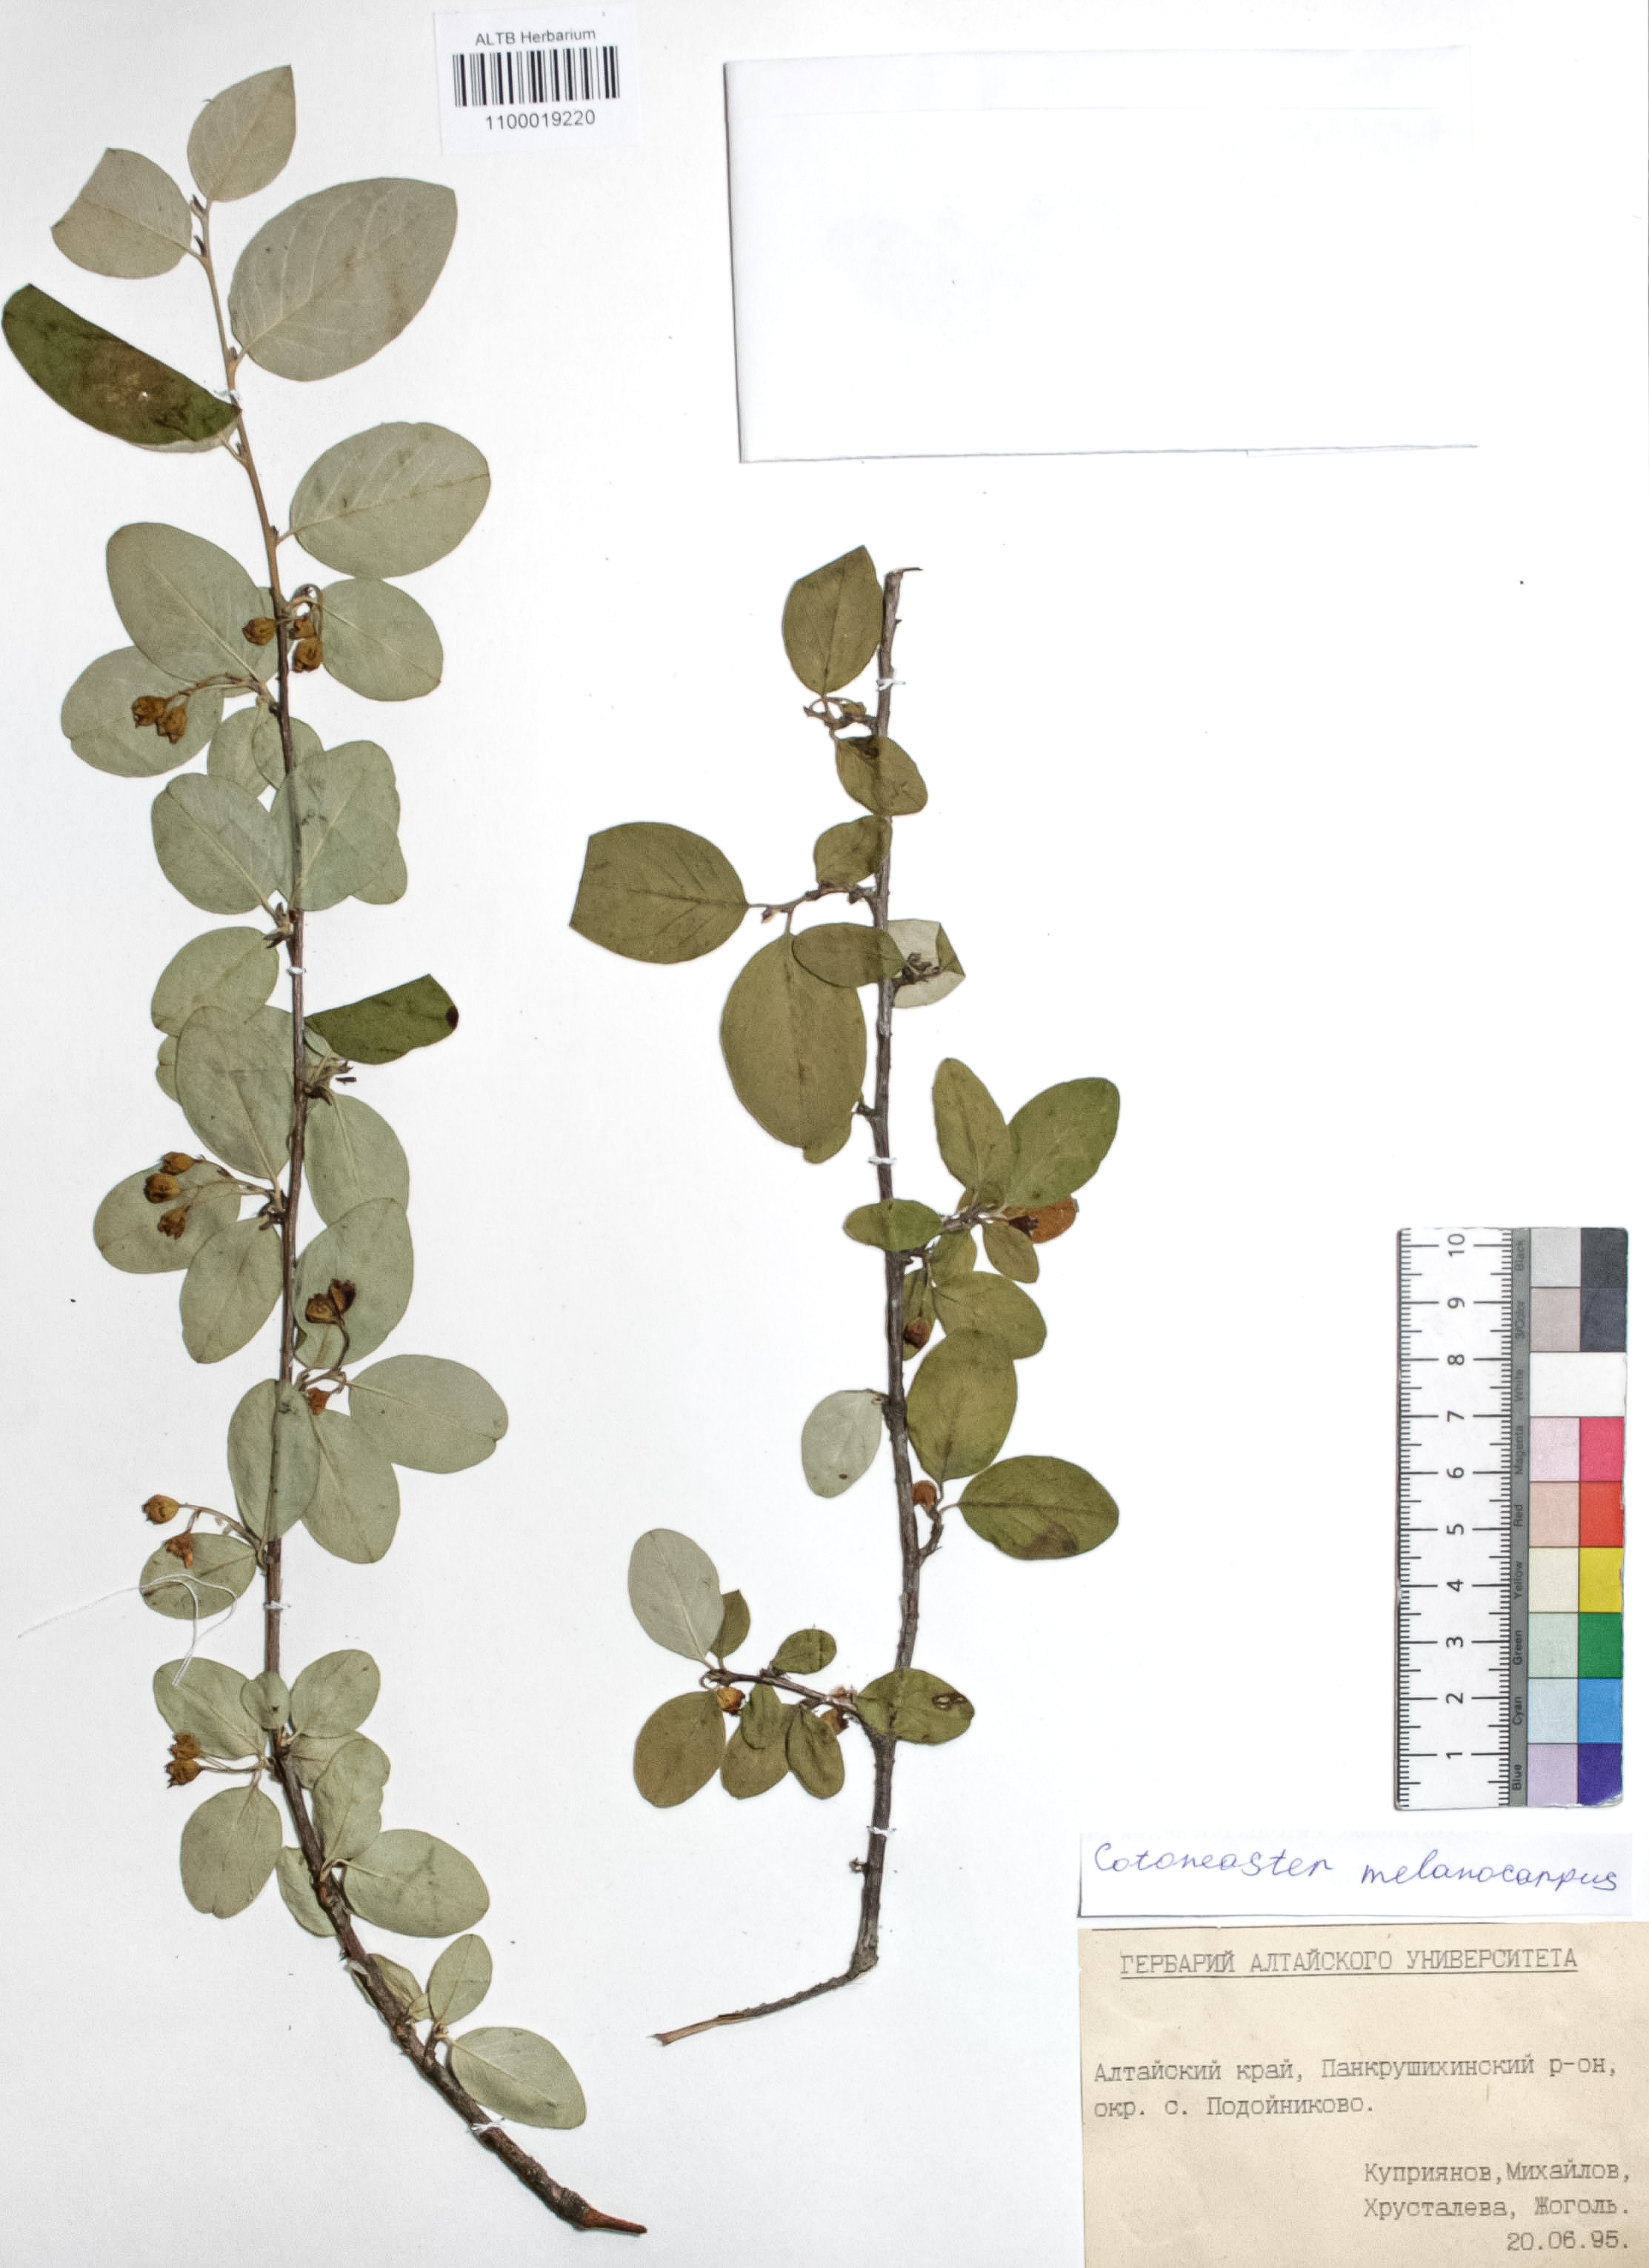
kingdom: Plantae
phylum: Tracheophyta
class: Magnoliopsida
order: Rosales
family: Rosaceae
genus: Cotoneaster
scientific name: Cotoneaster niger
